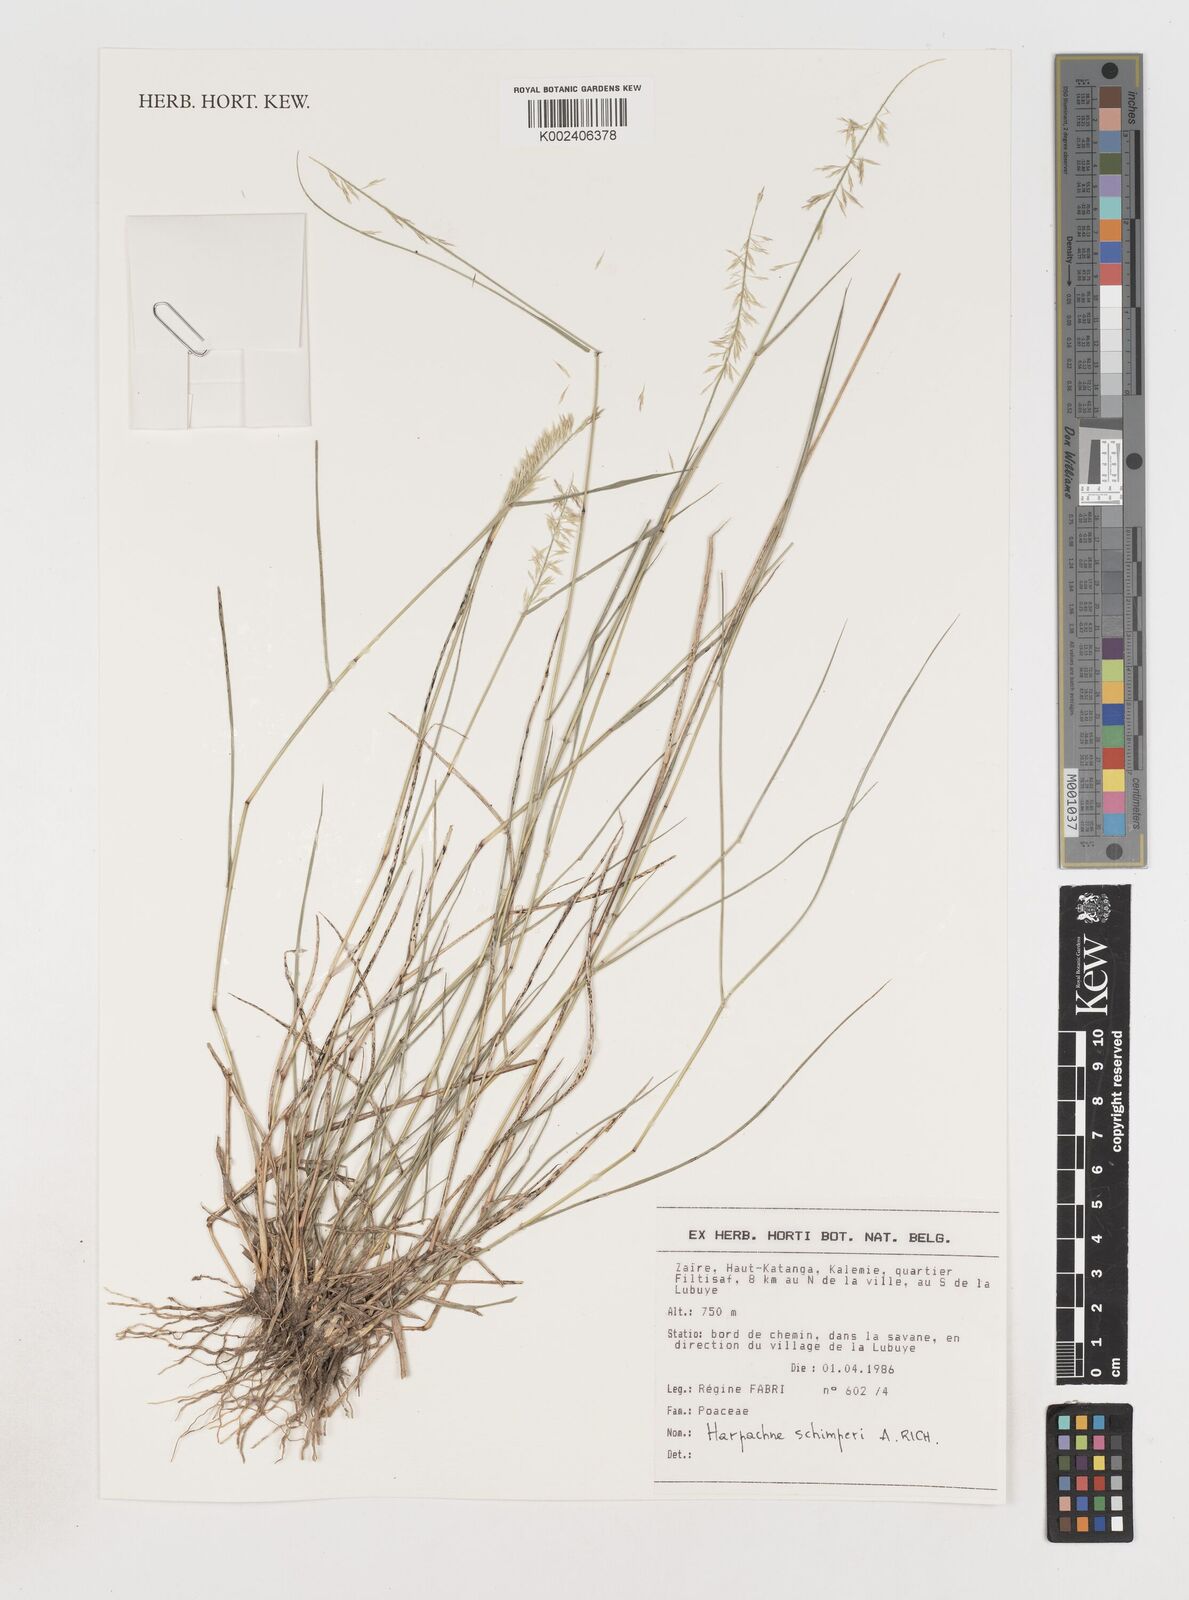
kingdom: Plantae
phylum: Tracheophyta
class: Liliopsida
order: Poales
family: Poaceae
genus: Harpachne
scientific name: Harpachne schimperi
